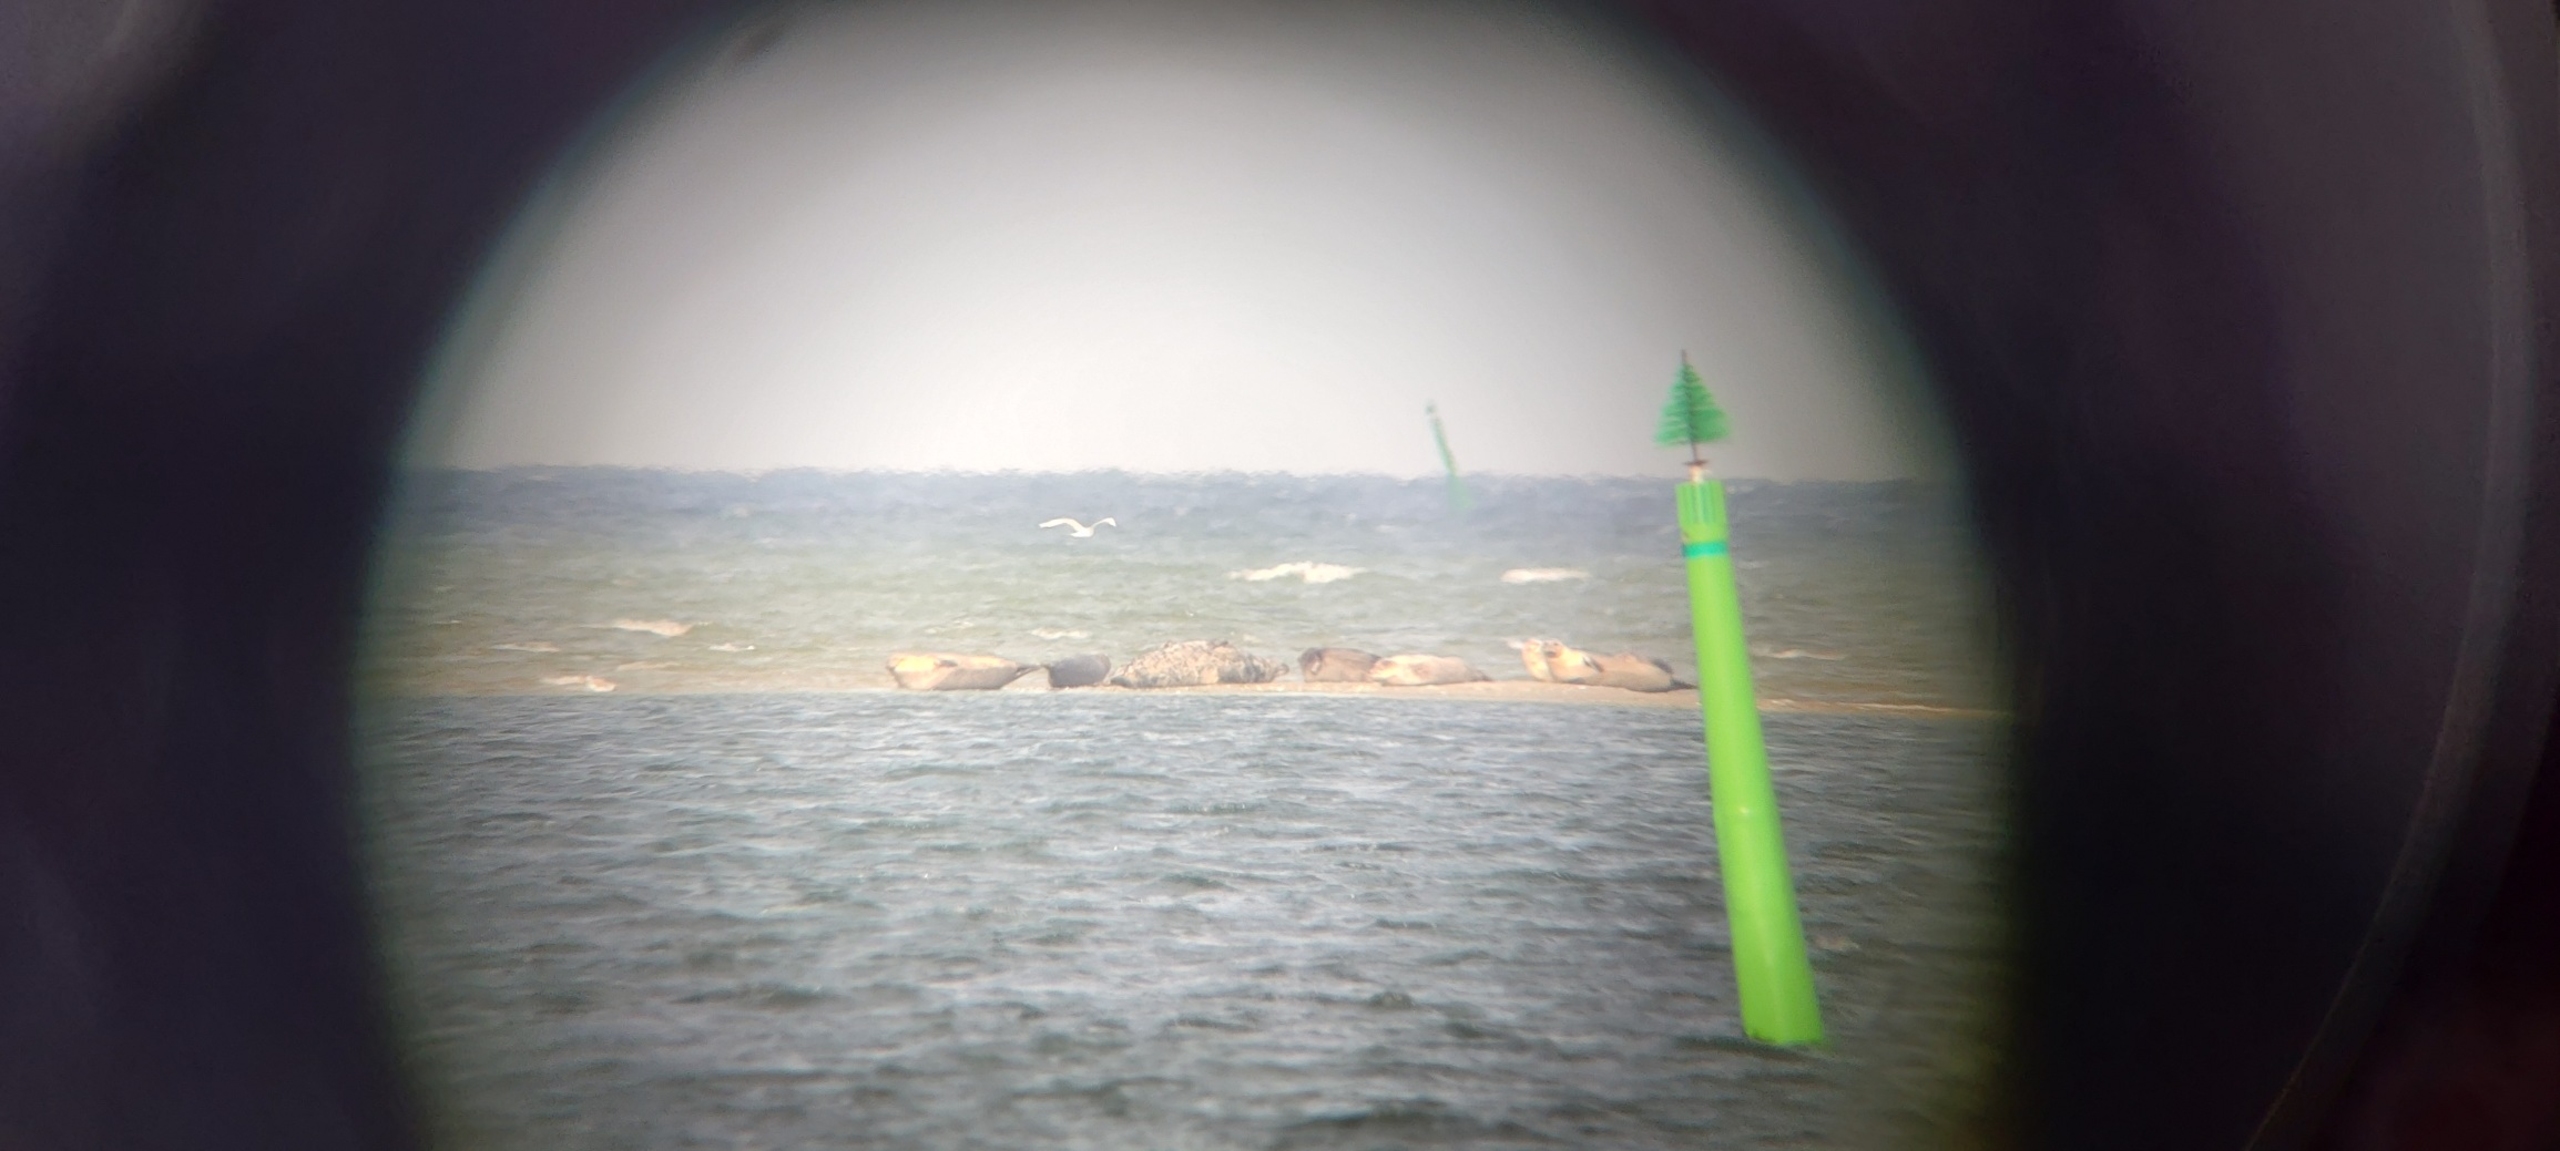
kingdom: Animalia
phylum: Chordata
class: Mammalia
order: Carnivora
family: Phocidae
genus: Phoca
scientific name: Phoca vitulina
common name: Spættet sæl
